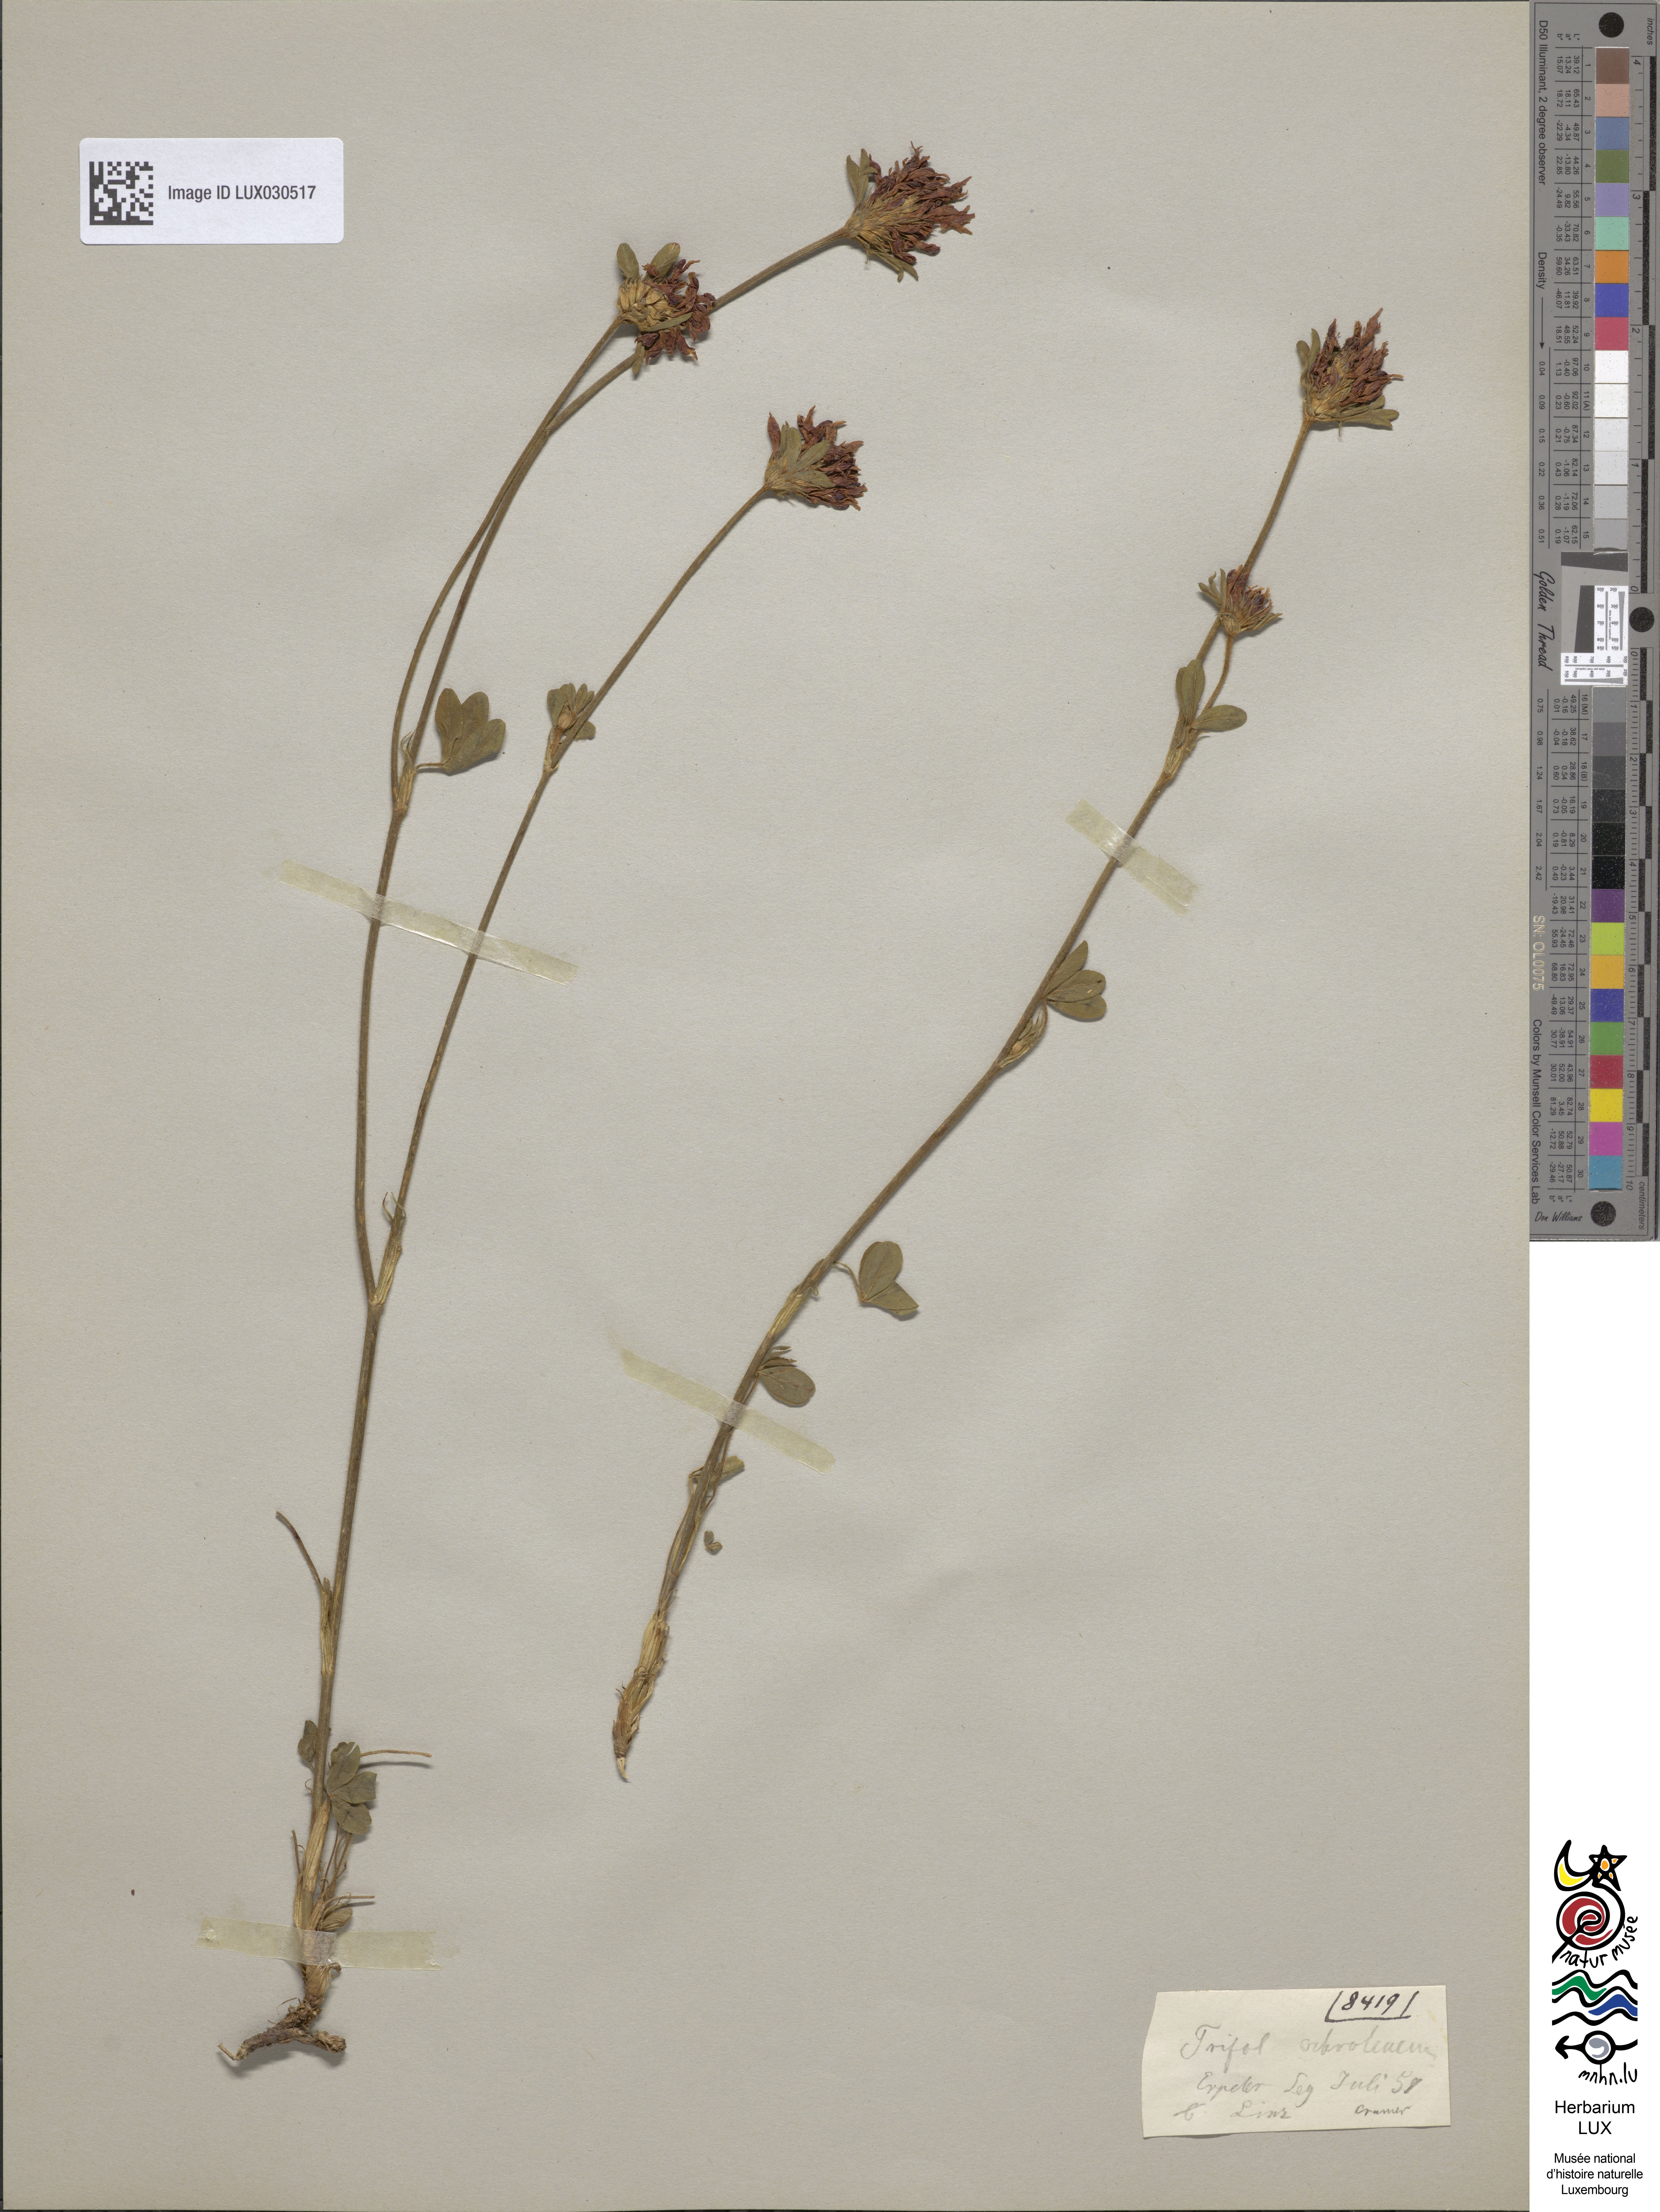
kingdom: Plantae
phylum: Tracheophyta
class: Magnoliopsida
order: Fabales
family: Fabaceae
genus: Trifolium
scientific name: Trifolium ochroleucon
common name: Sulphur clover
